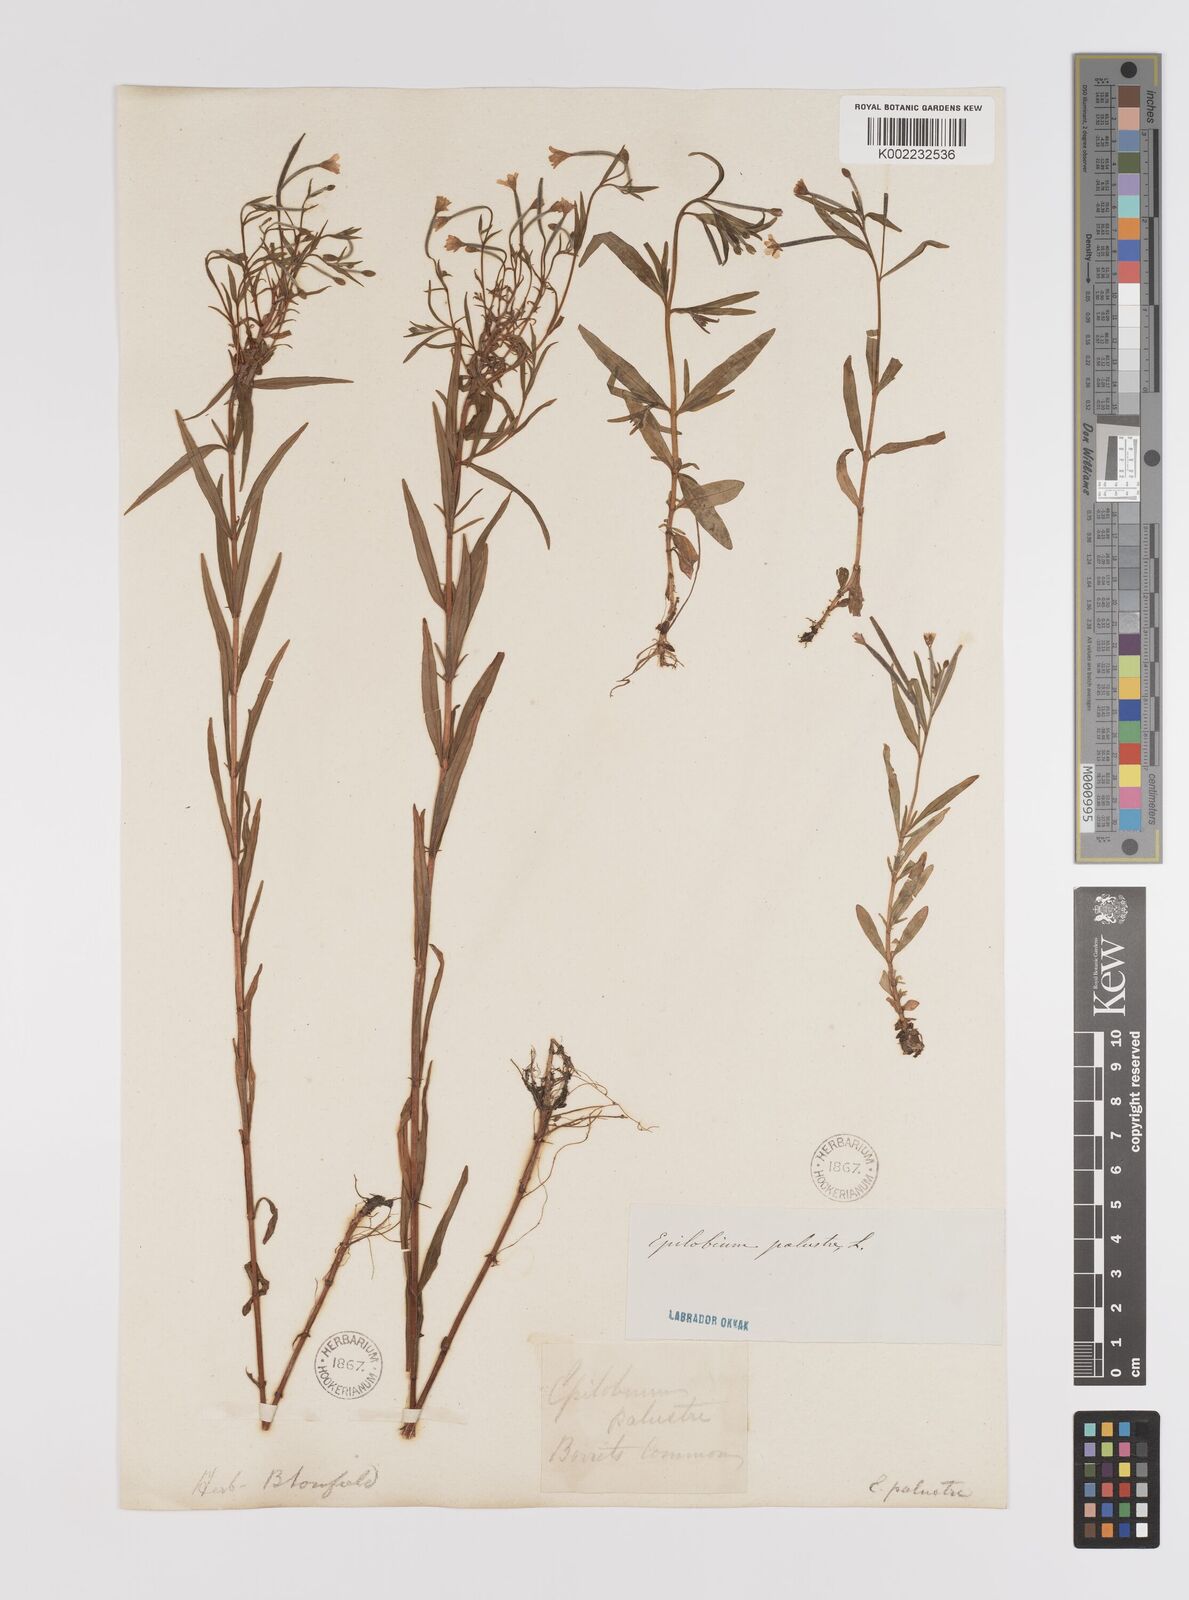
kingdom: Plantae
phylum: Tracheophyta
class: Magnoliopsida
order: Myrtales
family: Onagraceae
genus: Epilobium
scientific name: Epilobium palustre
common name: Marsh willowherb
